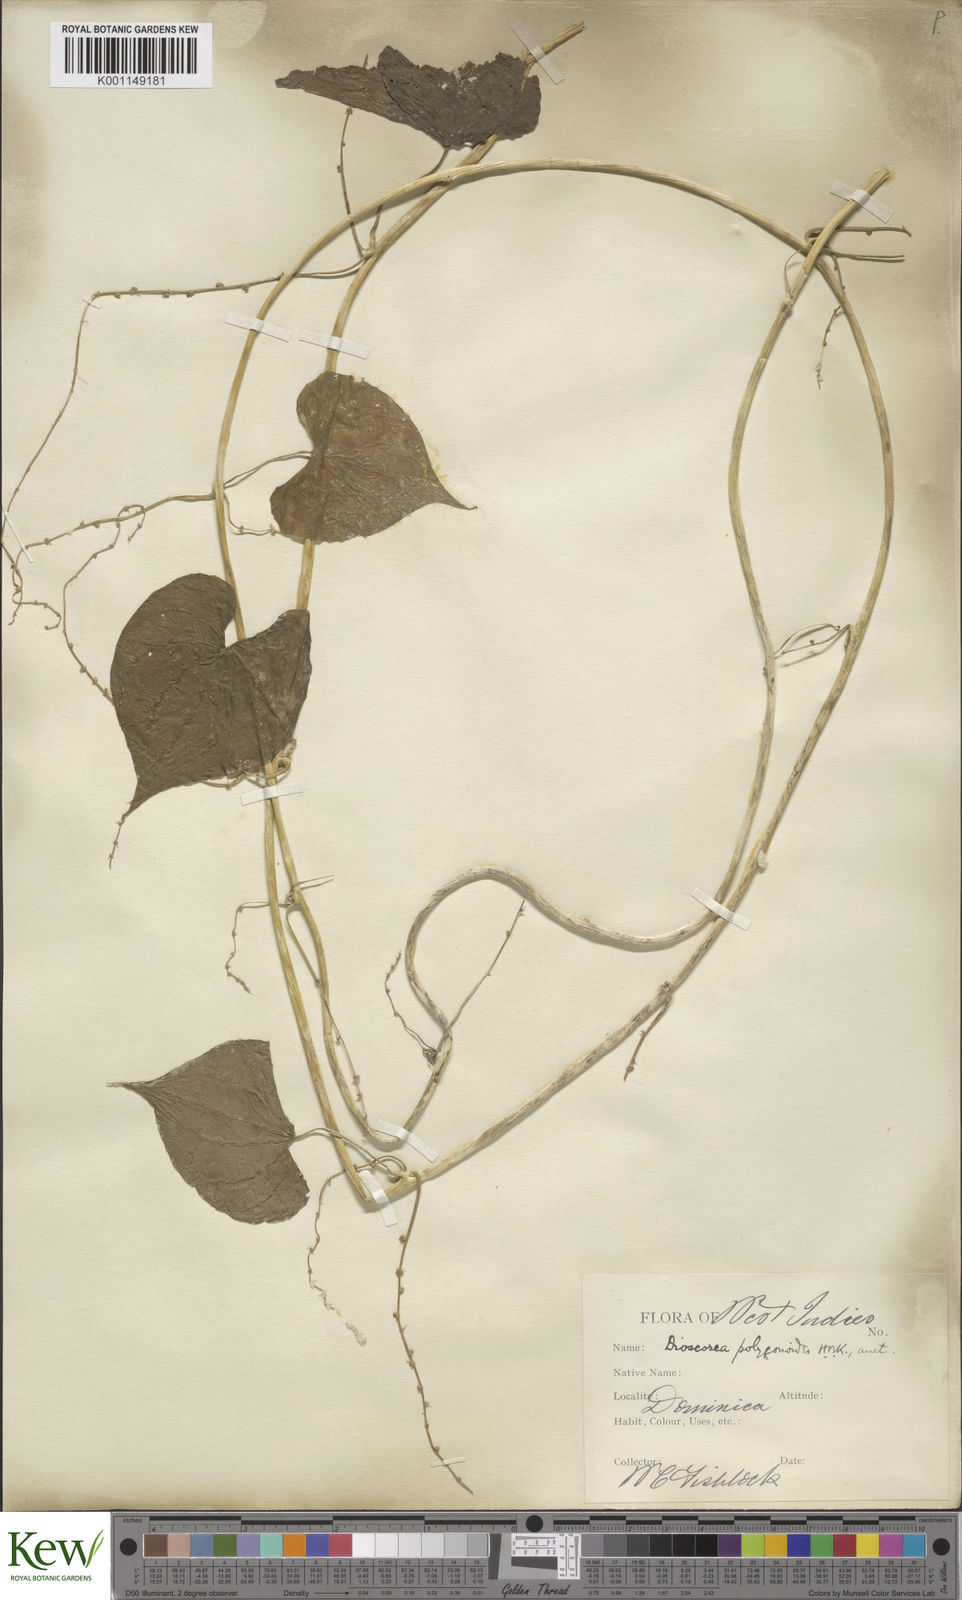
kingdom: Plantae
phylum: Tracheophyta
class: Liliopsida
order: Dioscoreales
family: Dioscoreaceae
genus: Dioscorea
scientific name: Dioscorea polygonoides
